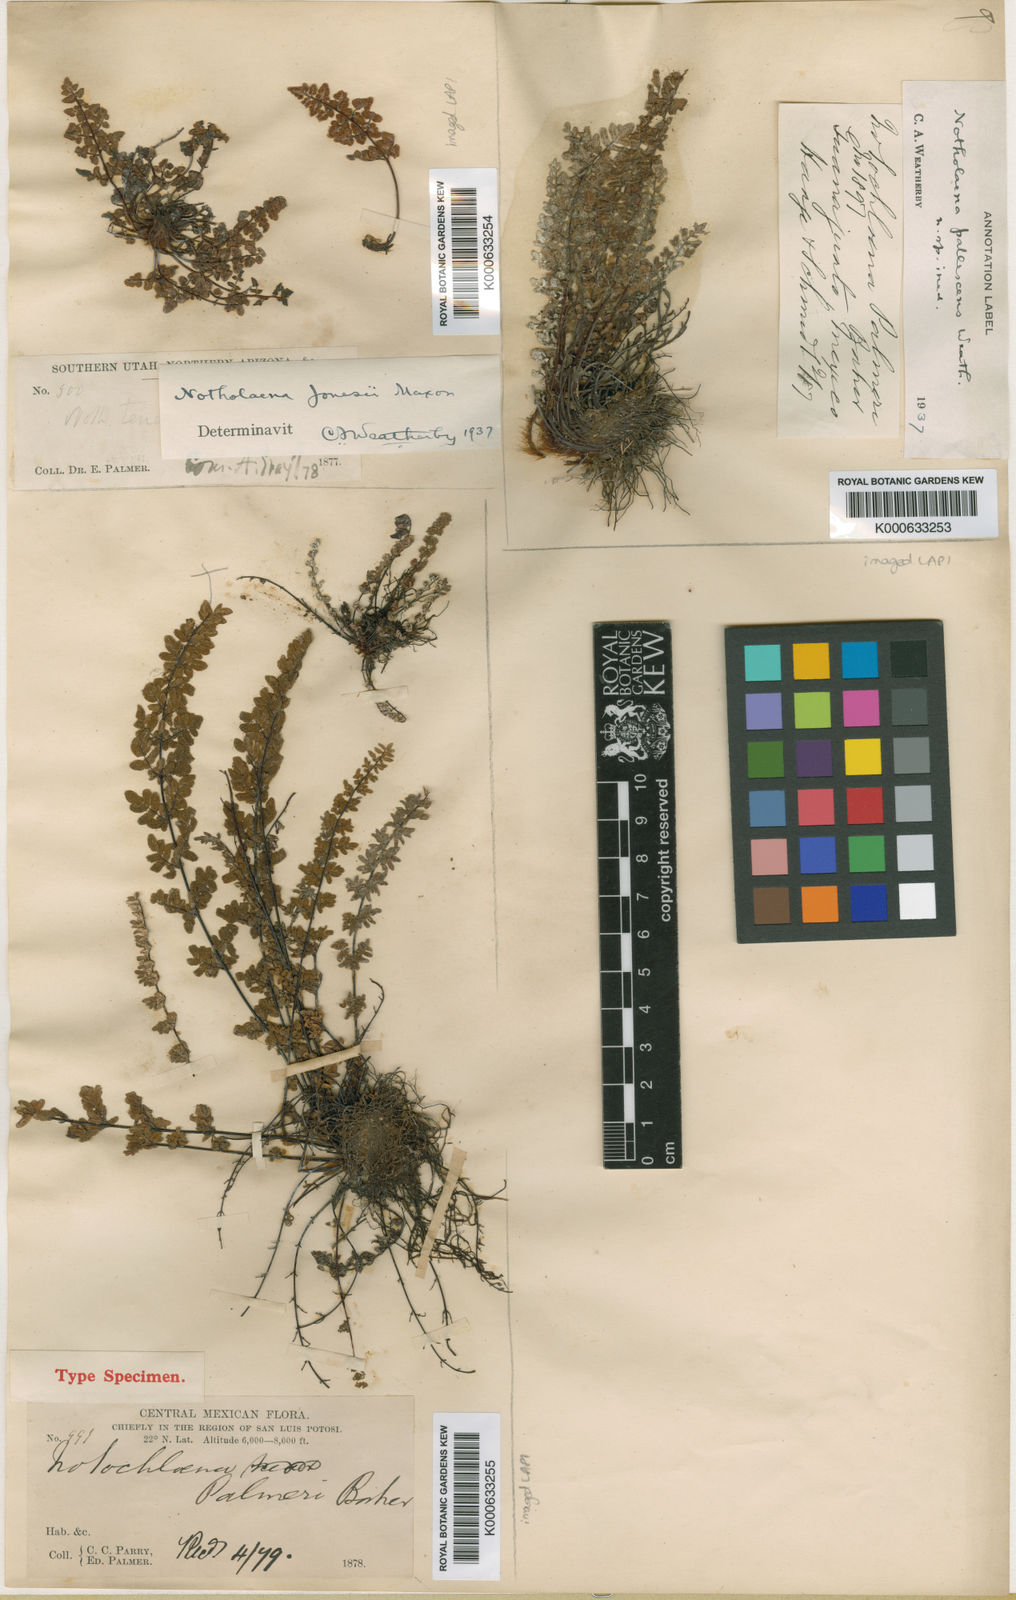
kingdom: Plantae
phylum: Tracheophyta
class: Polypodiopsida
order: Polypodiales
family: Pteridaceae
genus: Notholaena
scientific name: Notholaena jaliscana
